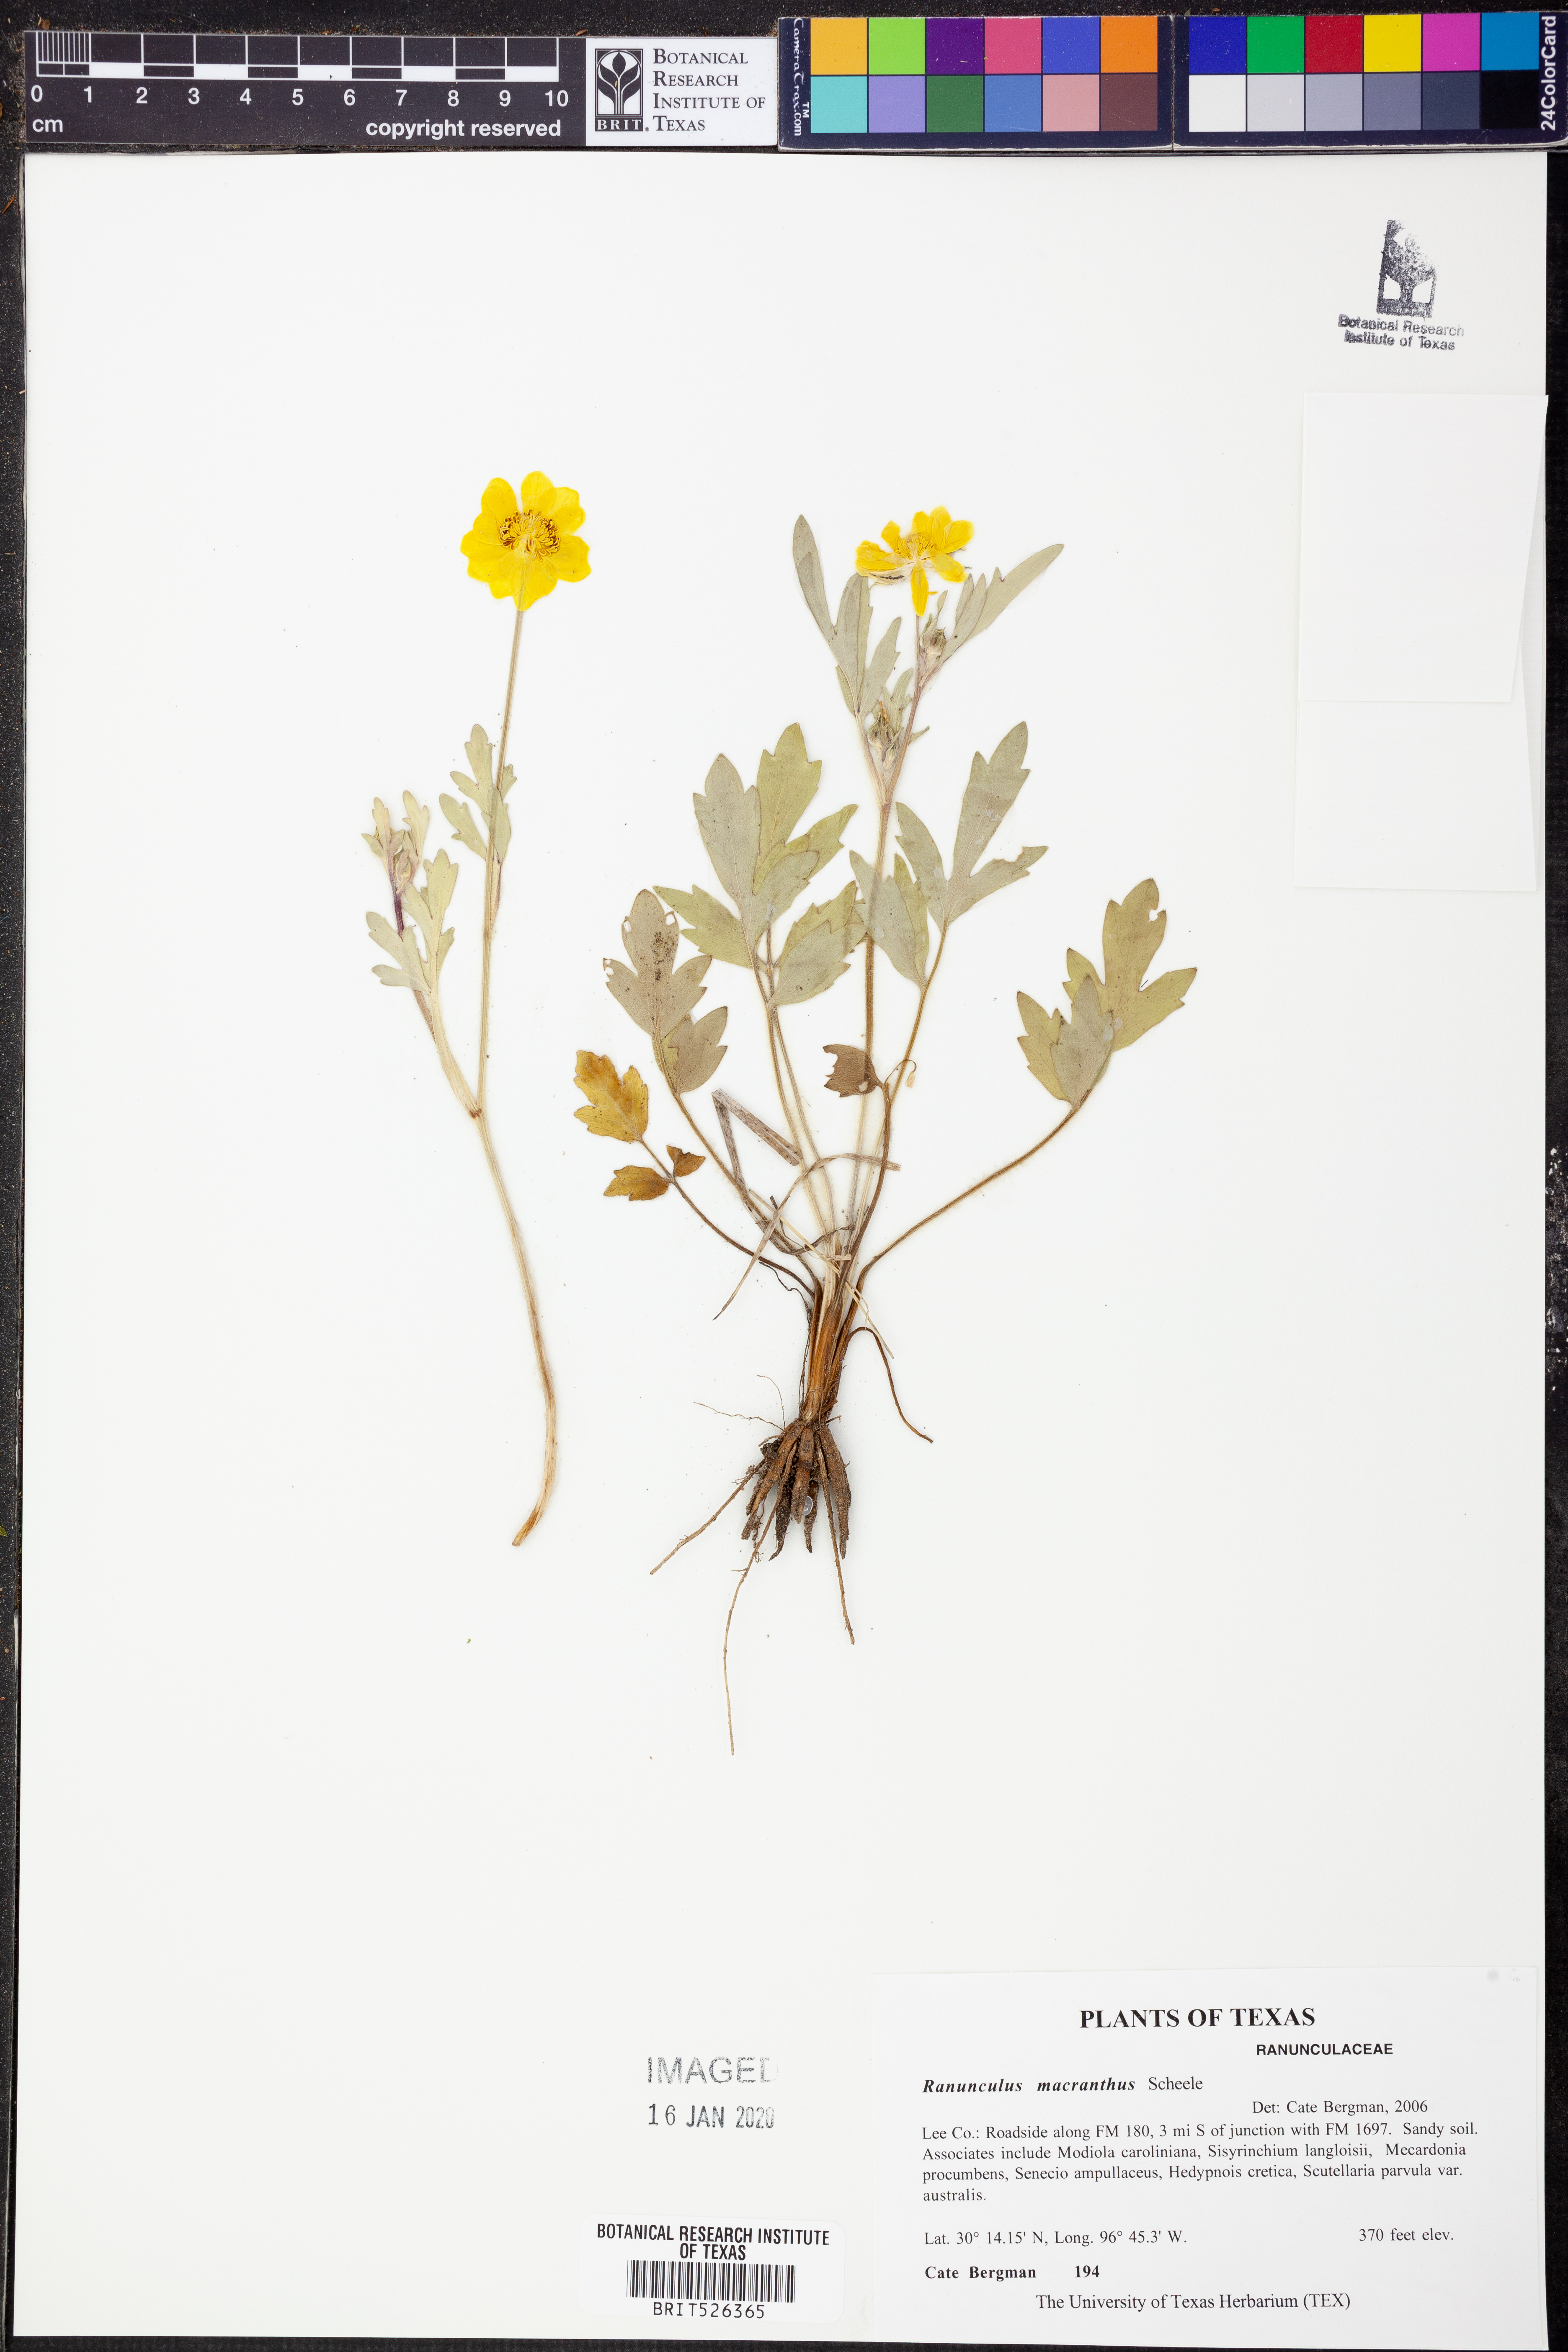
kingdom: Plantae
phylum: Tracheophyta
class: Magnoliopsida
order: Ranunculales
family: Ranunculaceae
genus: Ranunculus
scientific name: Ranunculus macranthus
